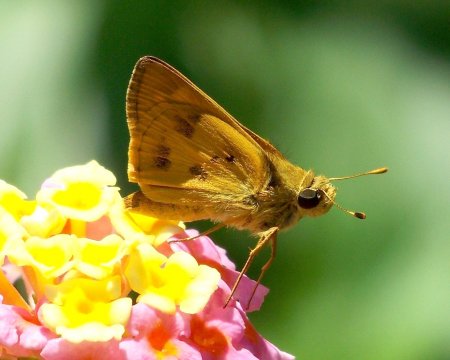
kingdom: Animalia
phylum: Arthropoda
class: Insecta
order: Lepidoptera
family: Hesperiidae
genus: Polites
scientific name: Polites vibex
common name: Whirlabout
